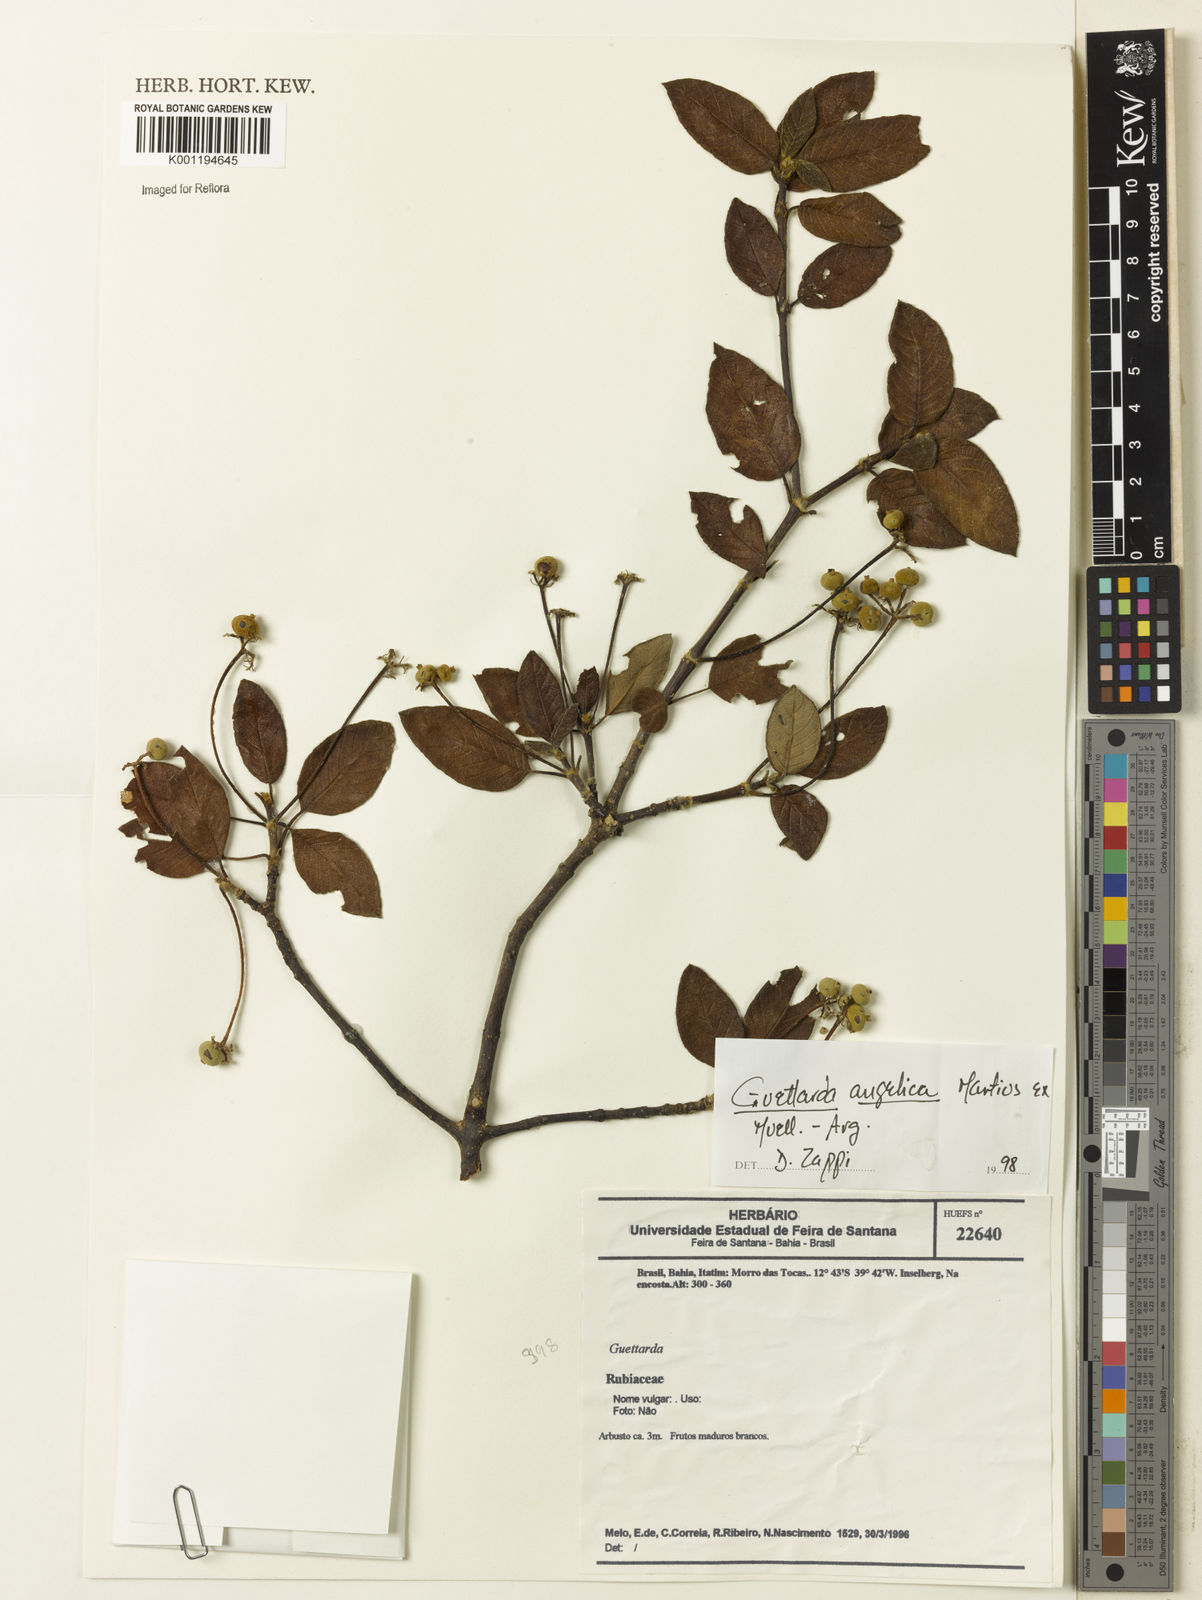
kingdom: Plantae
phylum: Tracheophyta
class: Magnoliopsida
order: Gentianales
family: Rubiaceae
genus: Guettarda
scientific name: Guettarda
